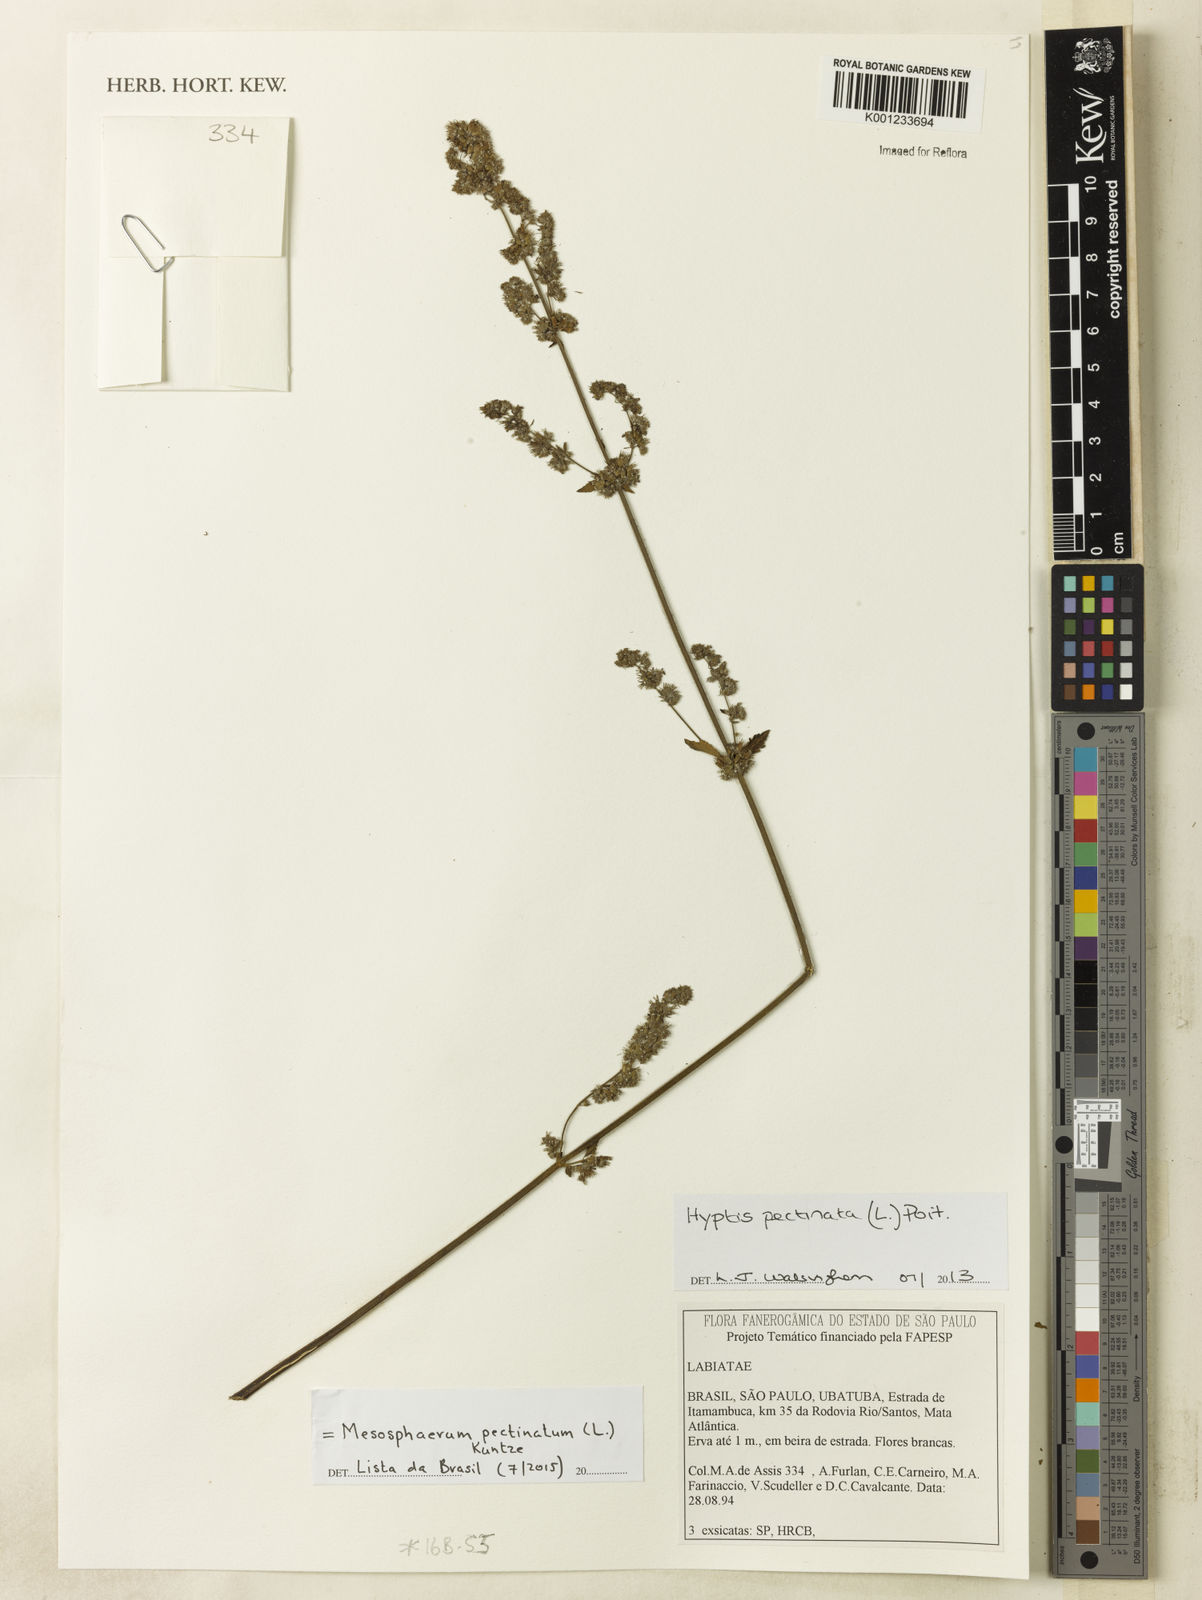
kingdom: Plantae
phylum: Tracheophyta
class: Magnoliopsida
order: Lamiales
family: Lamiaceae
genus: Mesosphaerum
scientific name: Mesosphaerum pectinatum
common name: Comb hyptis
